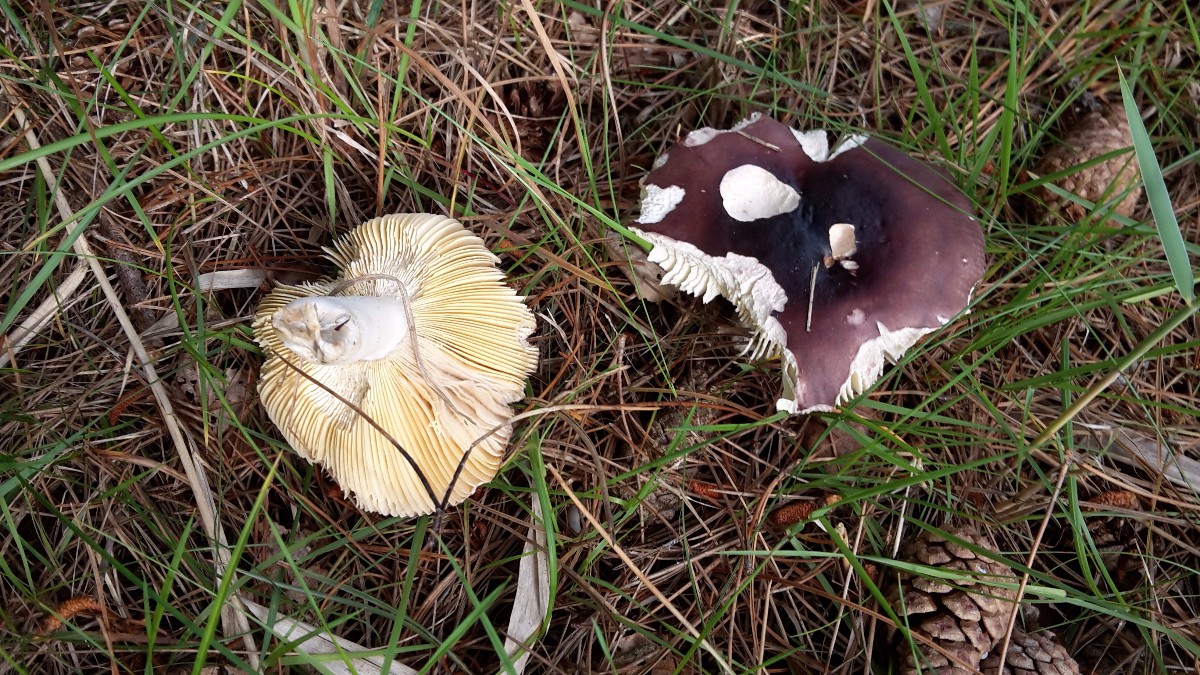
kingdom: Fungi
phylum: Basidiomycota
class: Agaricomycetes
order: Russulales
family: Russulaceae
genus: Russula
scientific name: Russula integra
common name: mandel-skørhat
